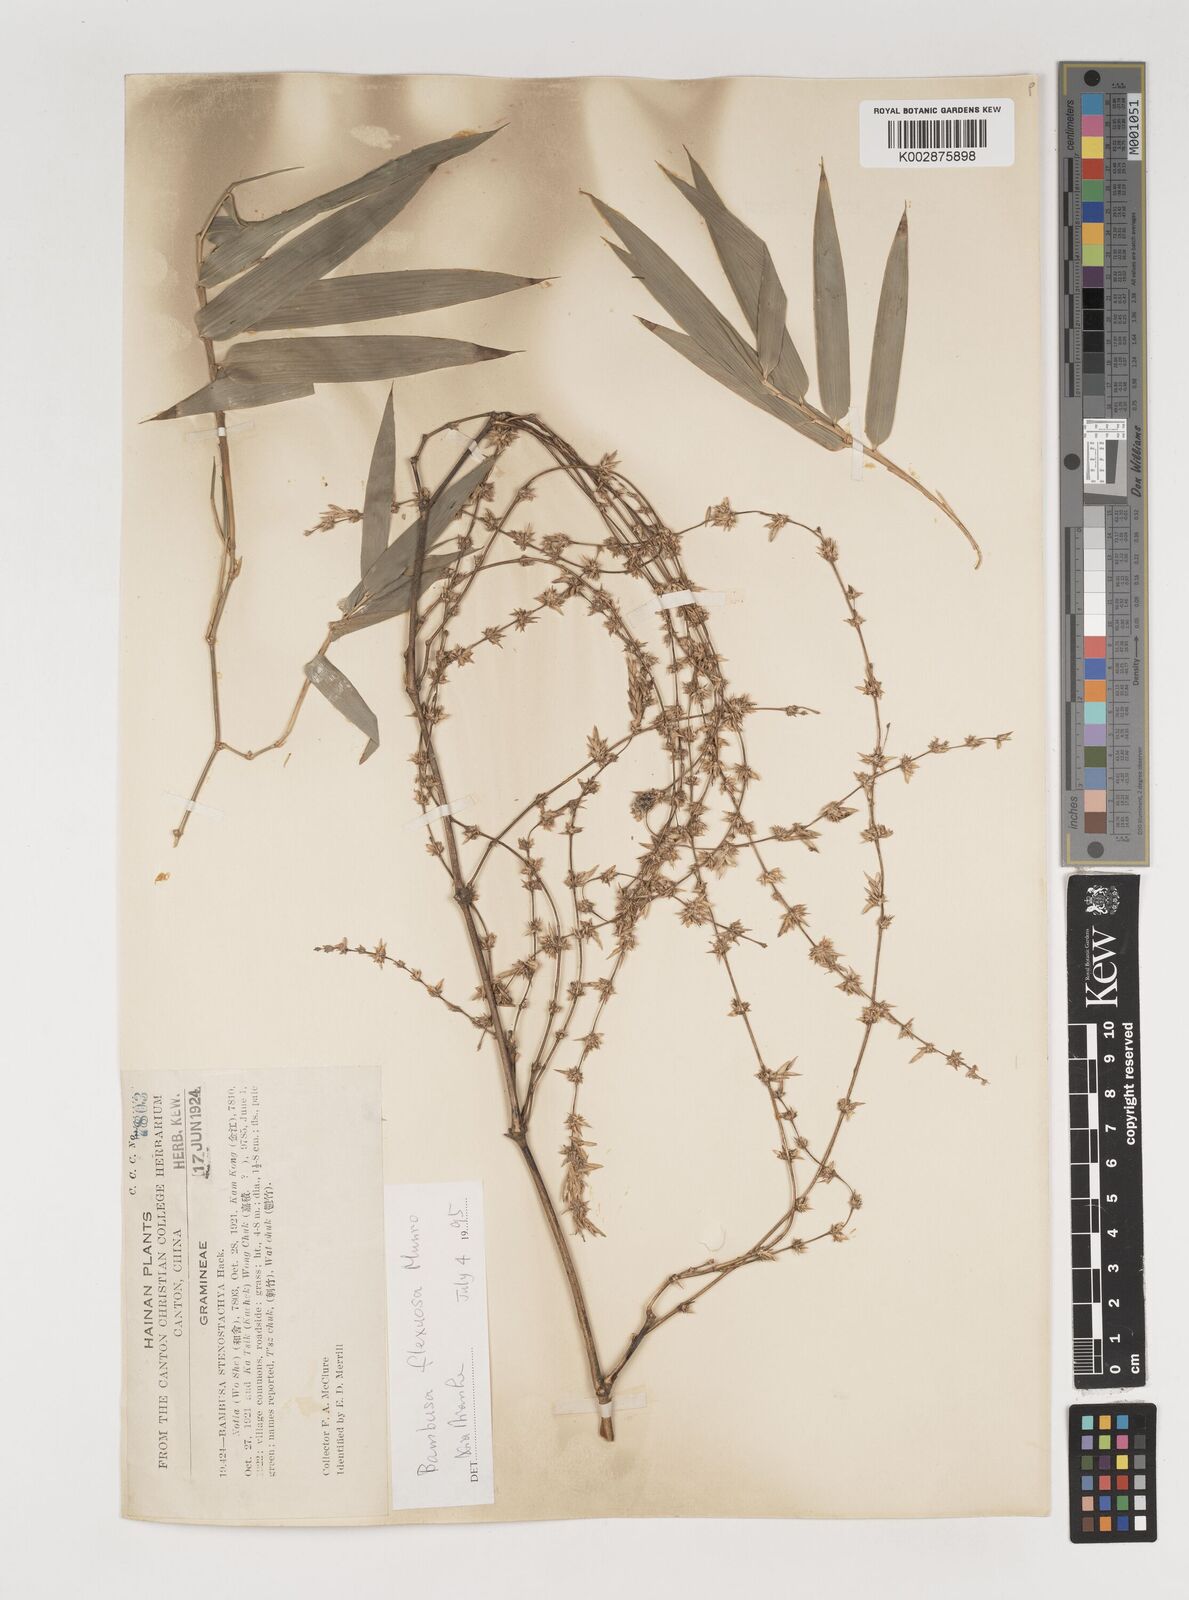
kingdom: Plantae
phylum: Tracheophyta
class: Liliopsida
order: Poales
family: Poaceae
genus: Bambusa
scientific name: Bambusa flexuosa
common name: Lesser thorny bamboo
